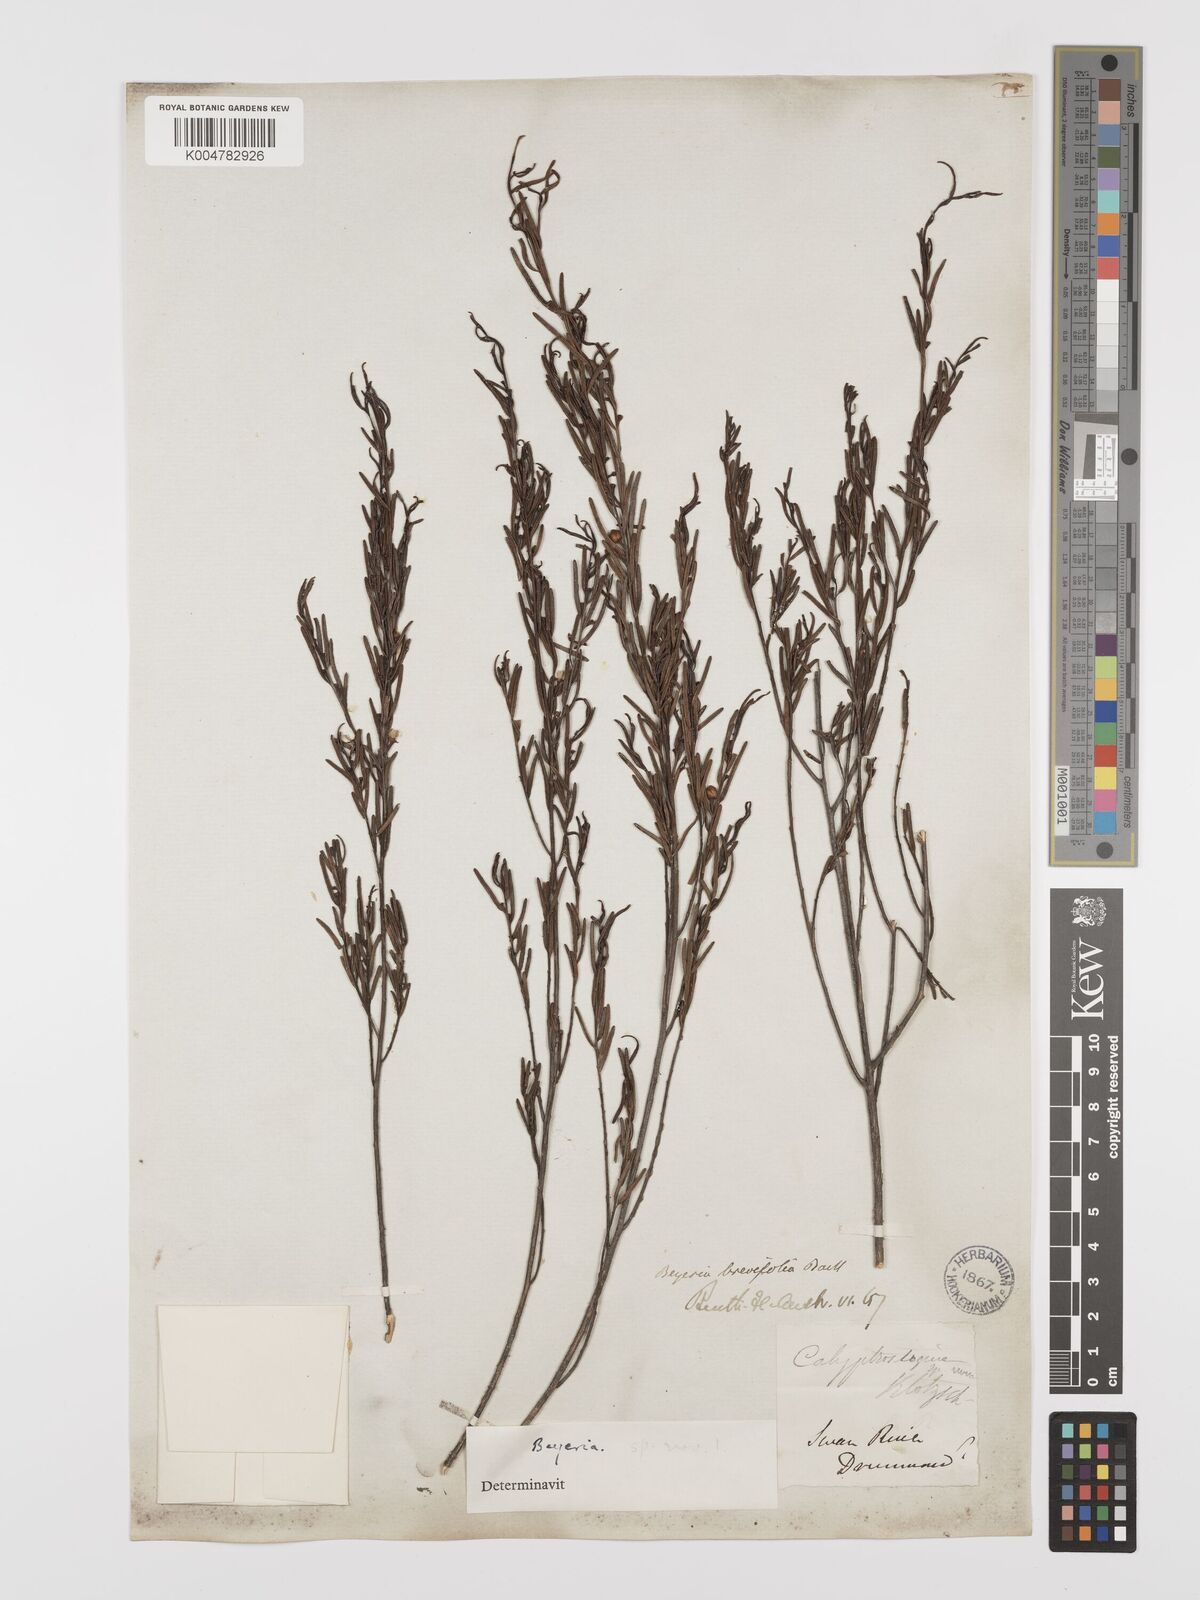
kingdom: Plantae
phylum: Tracheophyta
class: Magnoliopsida
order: Malpighiales
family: Euphorbiaceae
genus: Beyeria
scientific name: Beyeria sulcata
